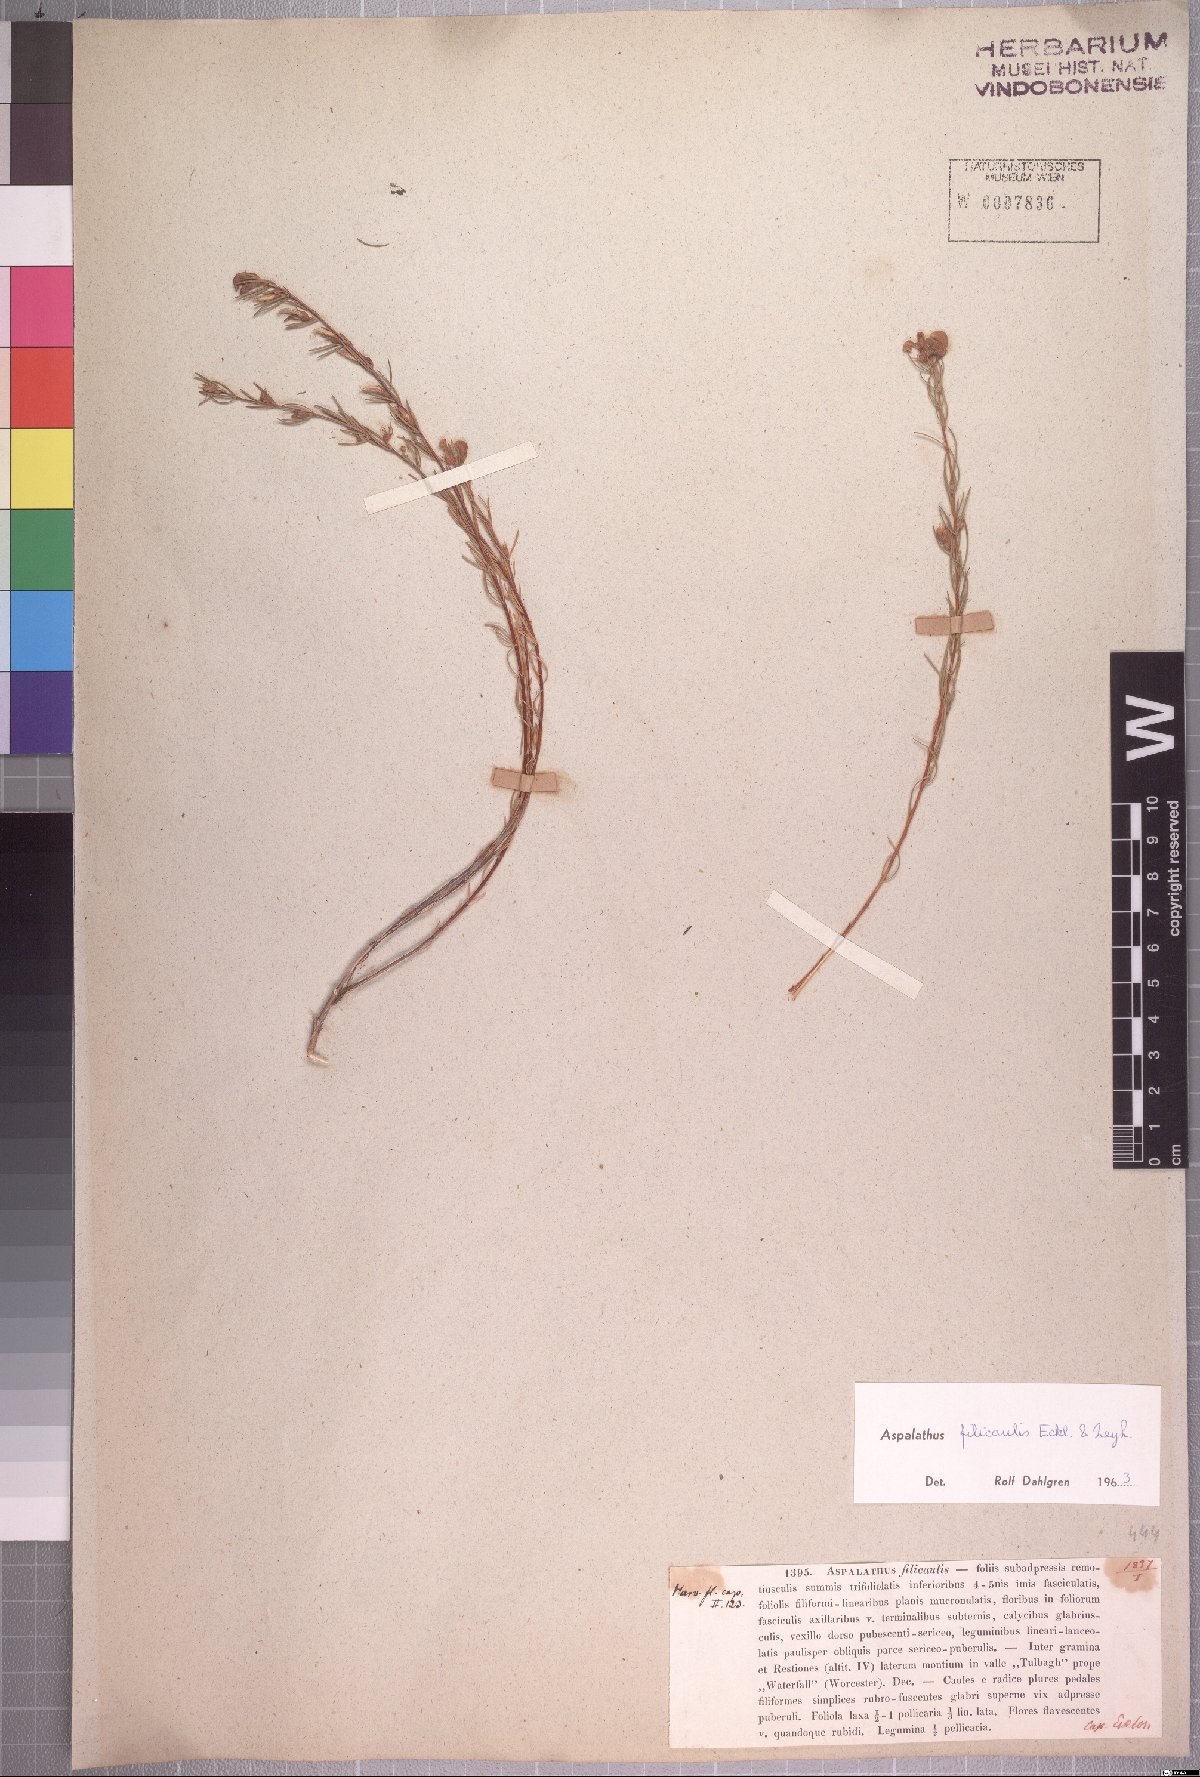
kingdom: Plantae
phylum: Tracheophyta
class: Magnoliopsida
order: Fabales
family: Fabaceae
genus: Aspalathus
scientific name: Aspalathus filicaulis
